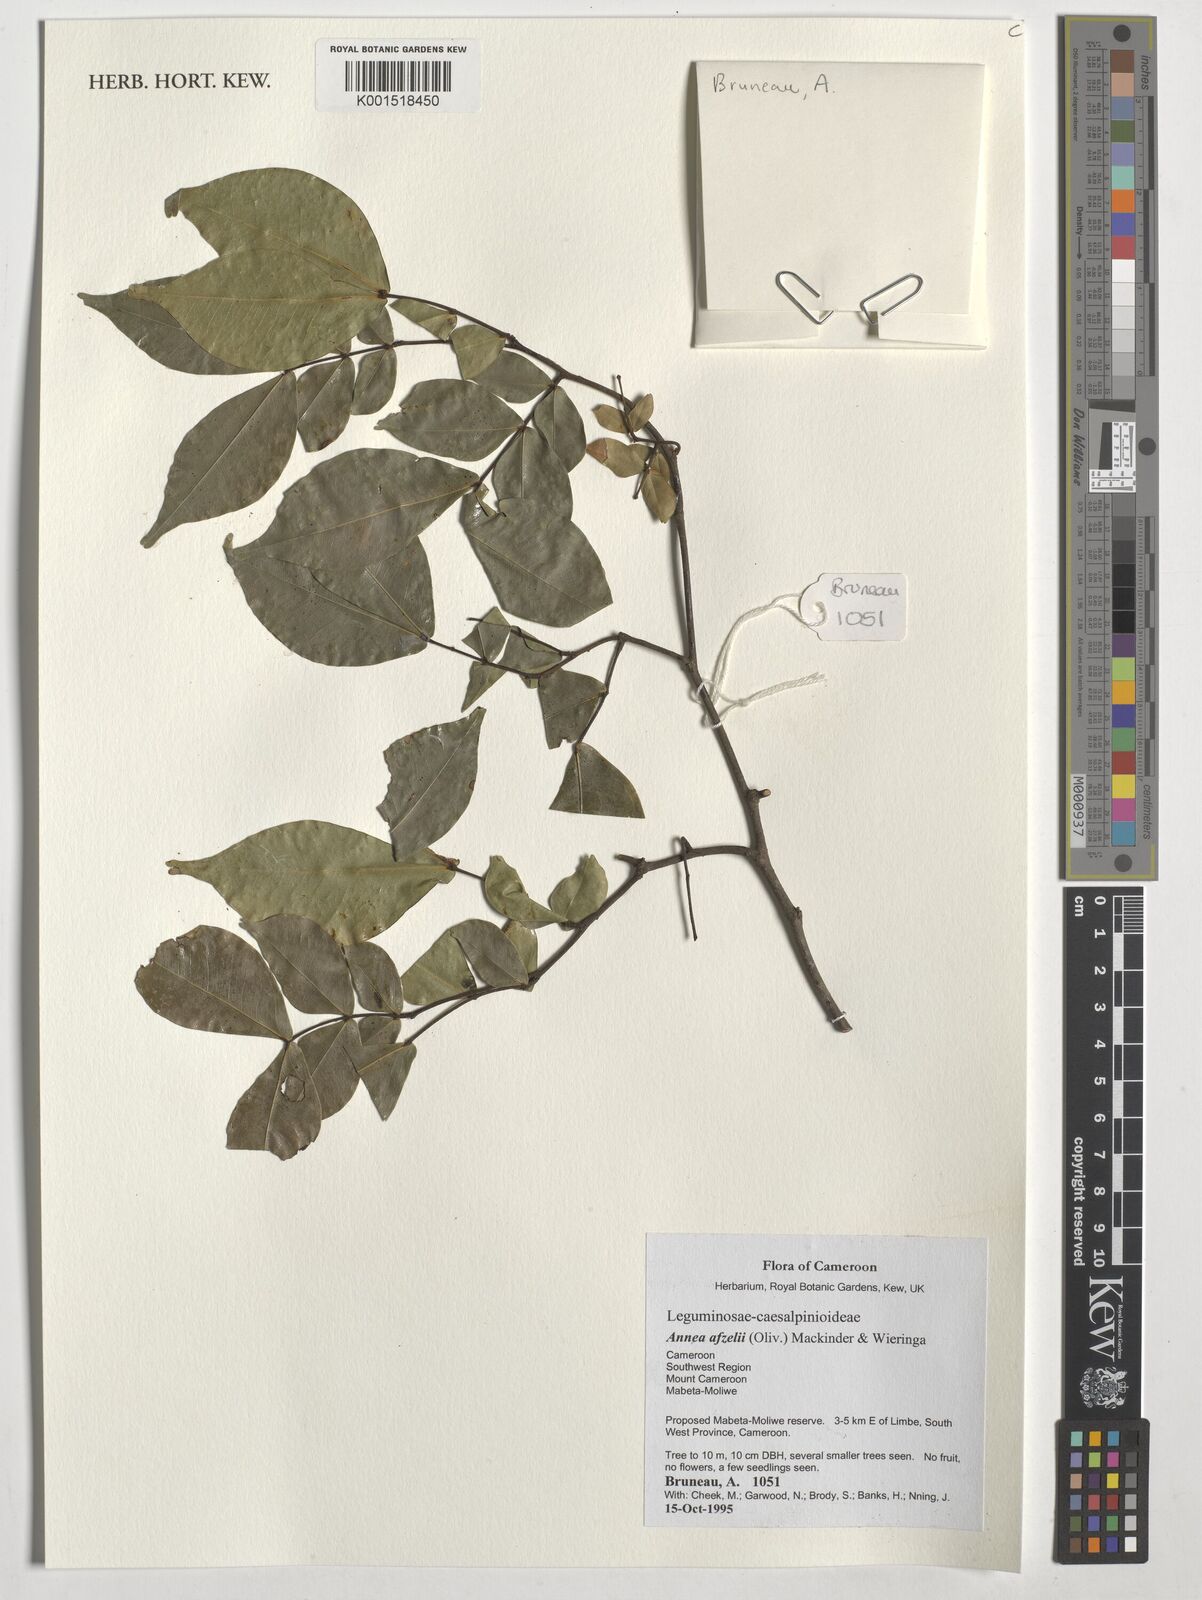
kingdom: Plantae
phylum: Tracheophyta
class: Magnoliopsida
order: Fabales
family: Fabaceae
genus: Annea
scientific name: Annea afzelii
